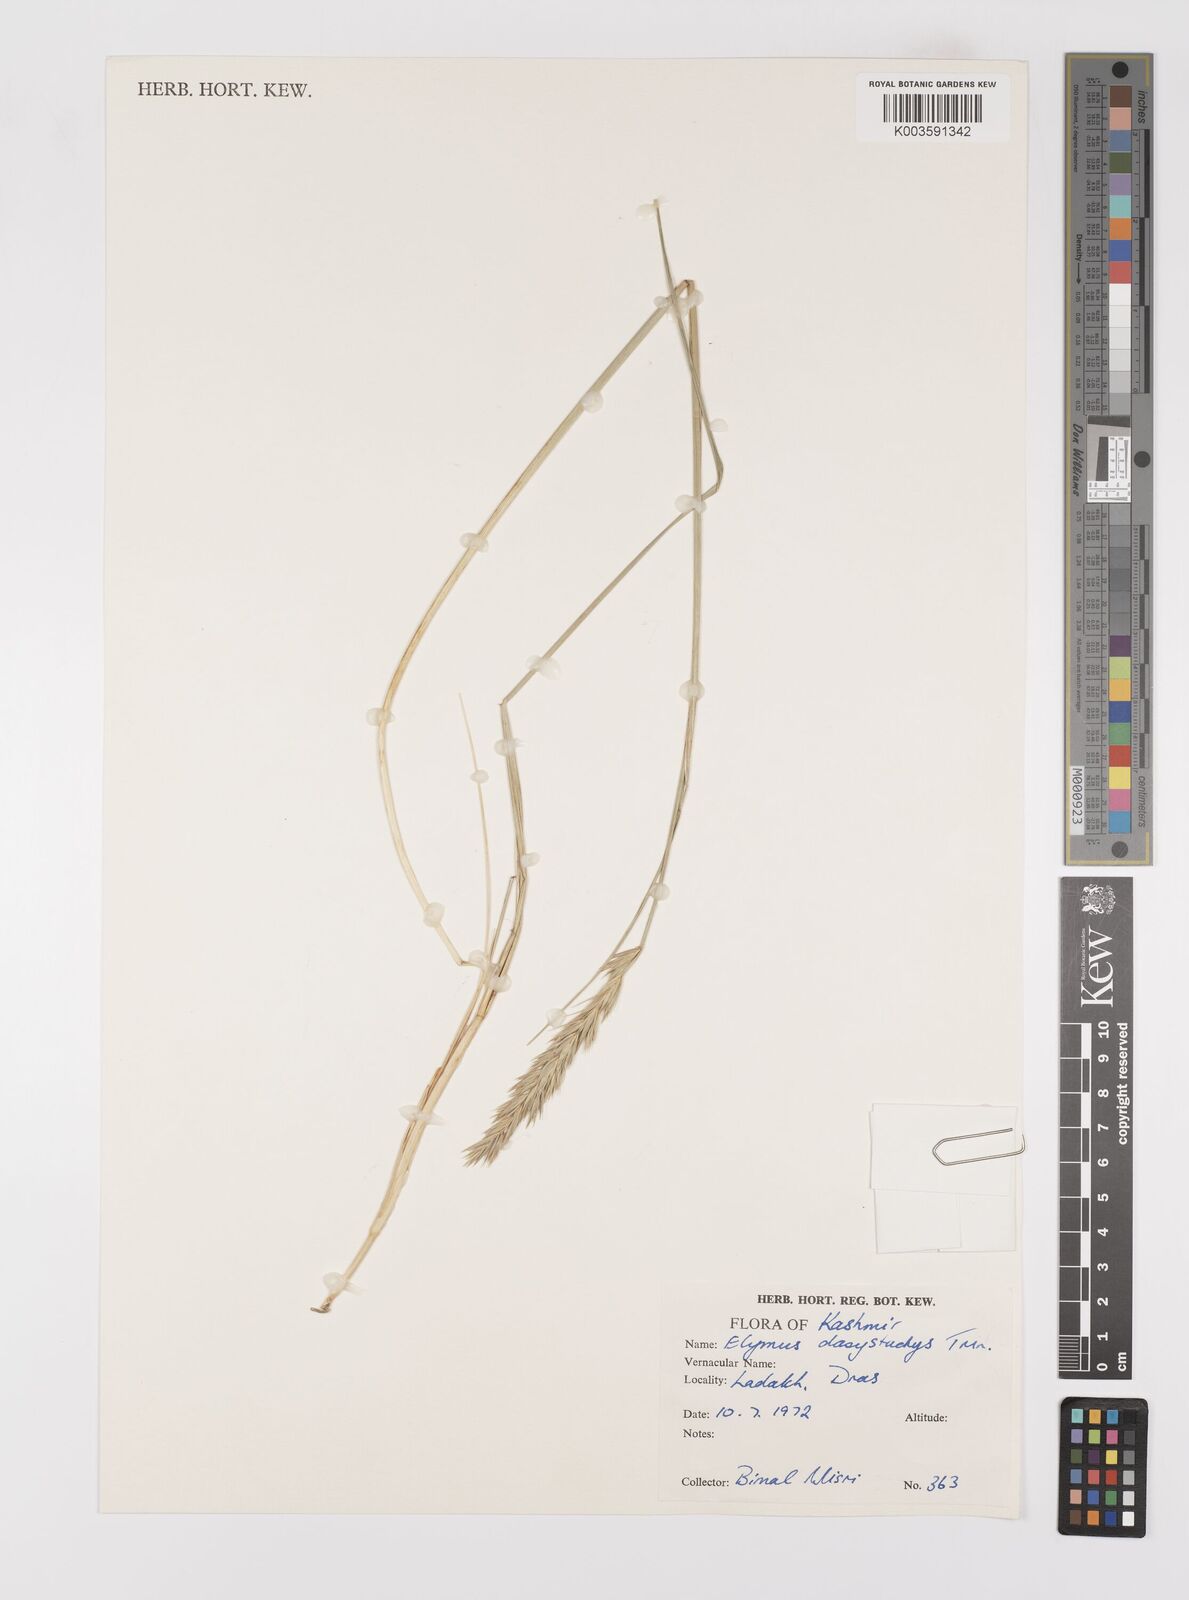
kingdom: Plantae
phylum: Tracheophyta
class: Liliopsida
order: Poales
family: Poaceae
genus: Leymus
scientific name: Leymus secalinus
